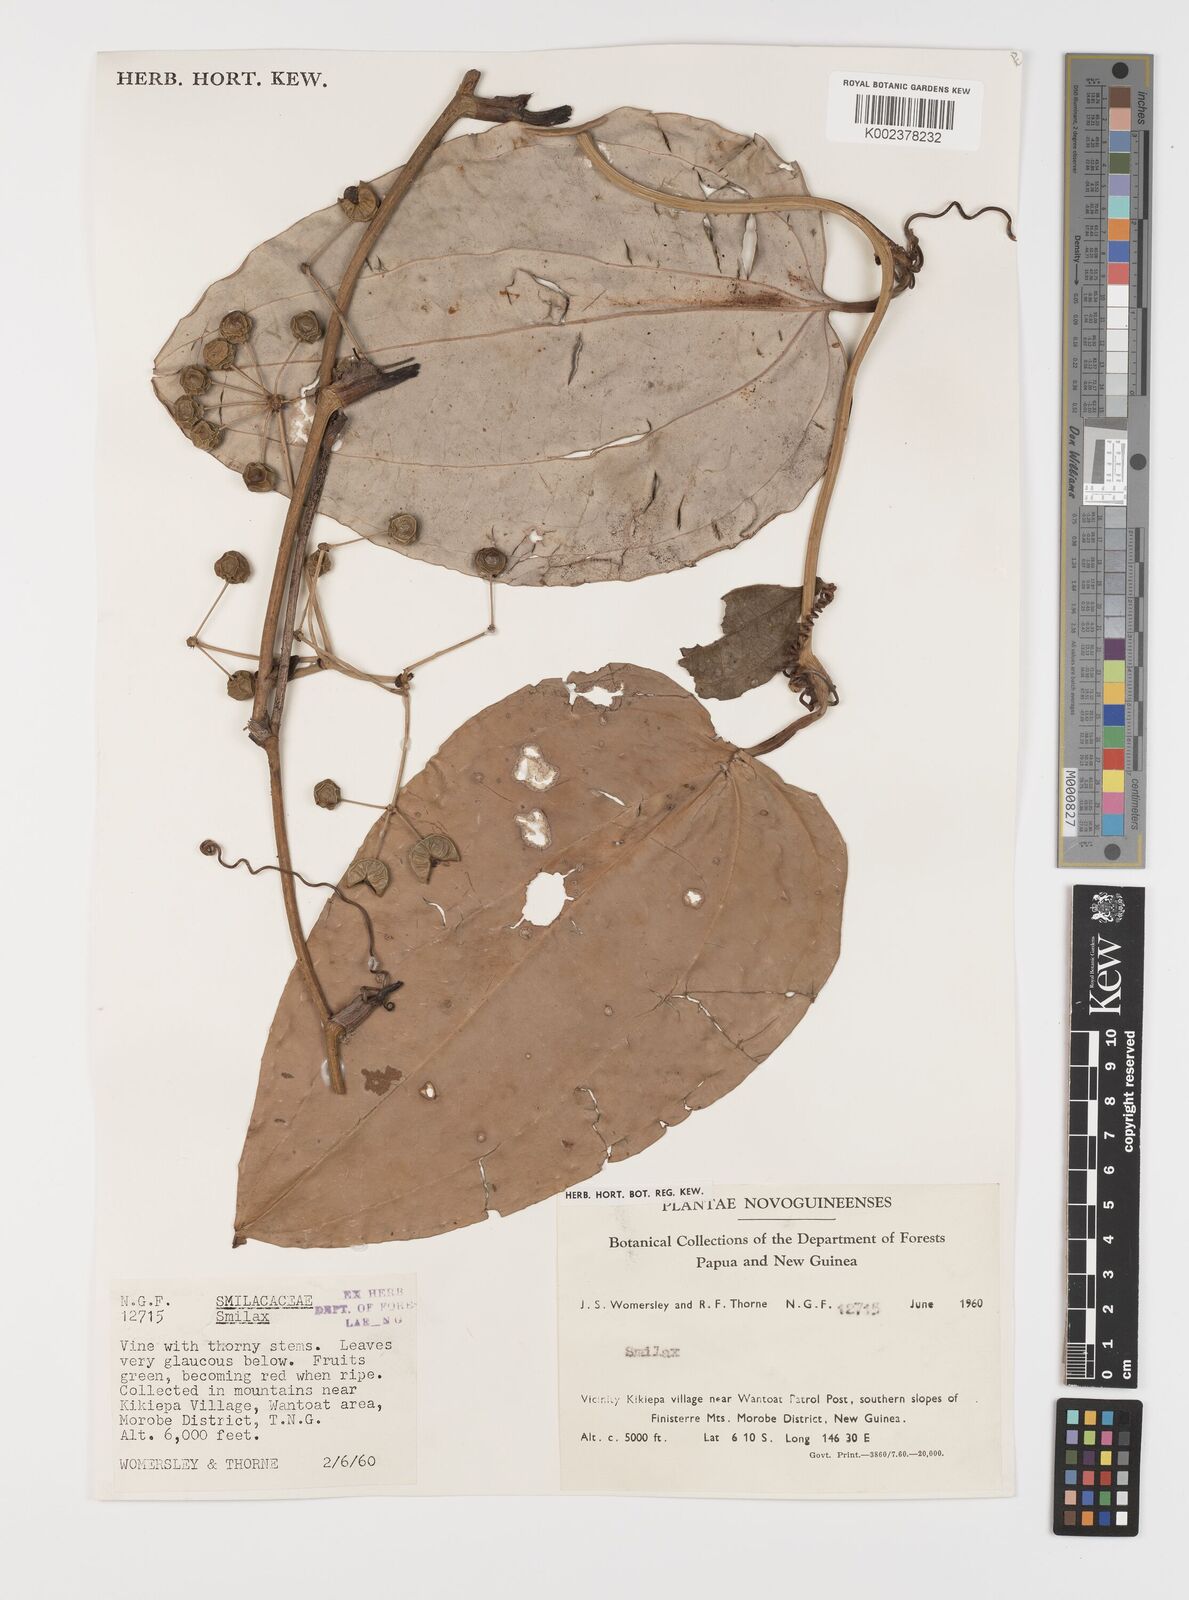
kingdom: Plantae
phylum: Tracheophyta
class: Liliopsida
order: Liliales
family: Smilacaceae
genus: Smilax
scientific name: Smilax
